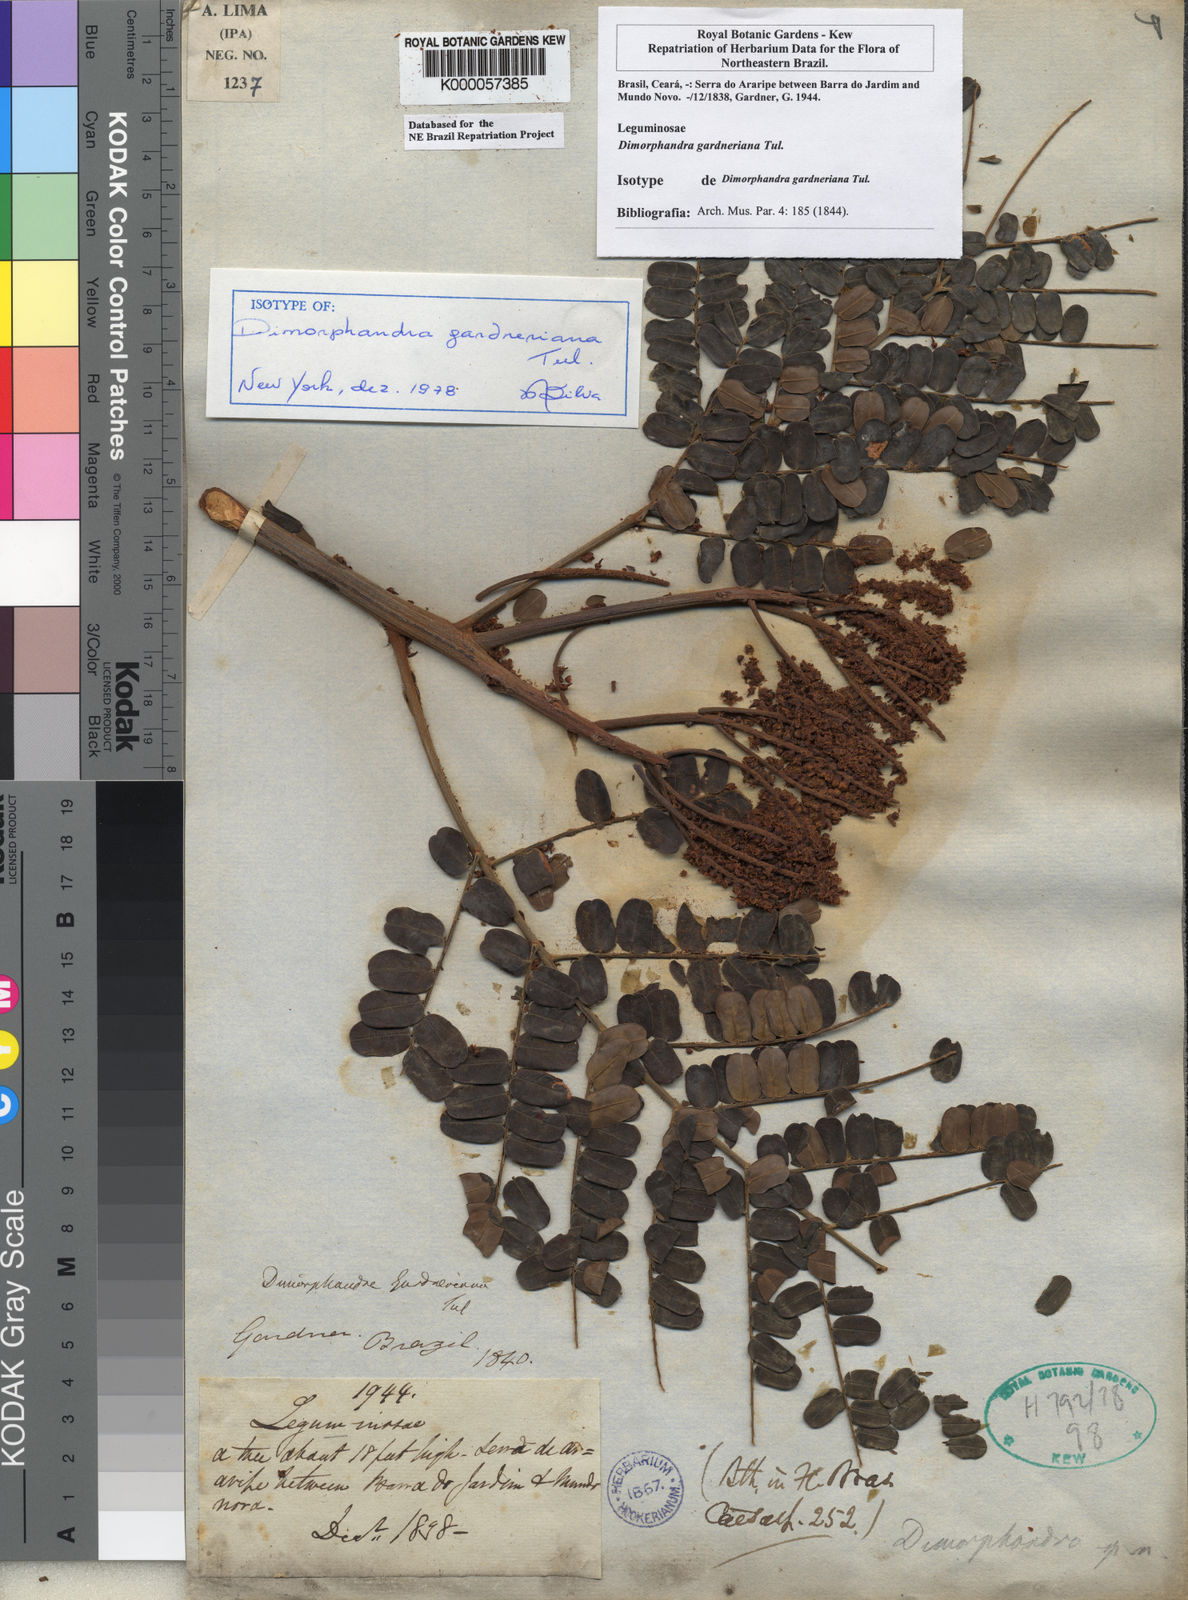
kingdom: Plantae
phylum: Tracheophyta
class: Magnoliopsida
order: Fabales
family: Fabaceae
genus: Dimorphandra
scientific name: Dimorphandra gardneriana
